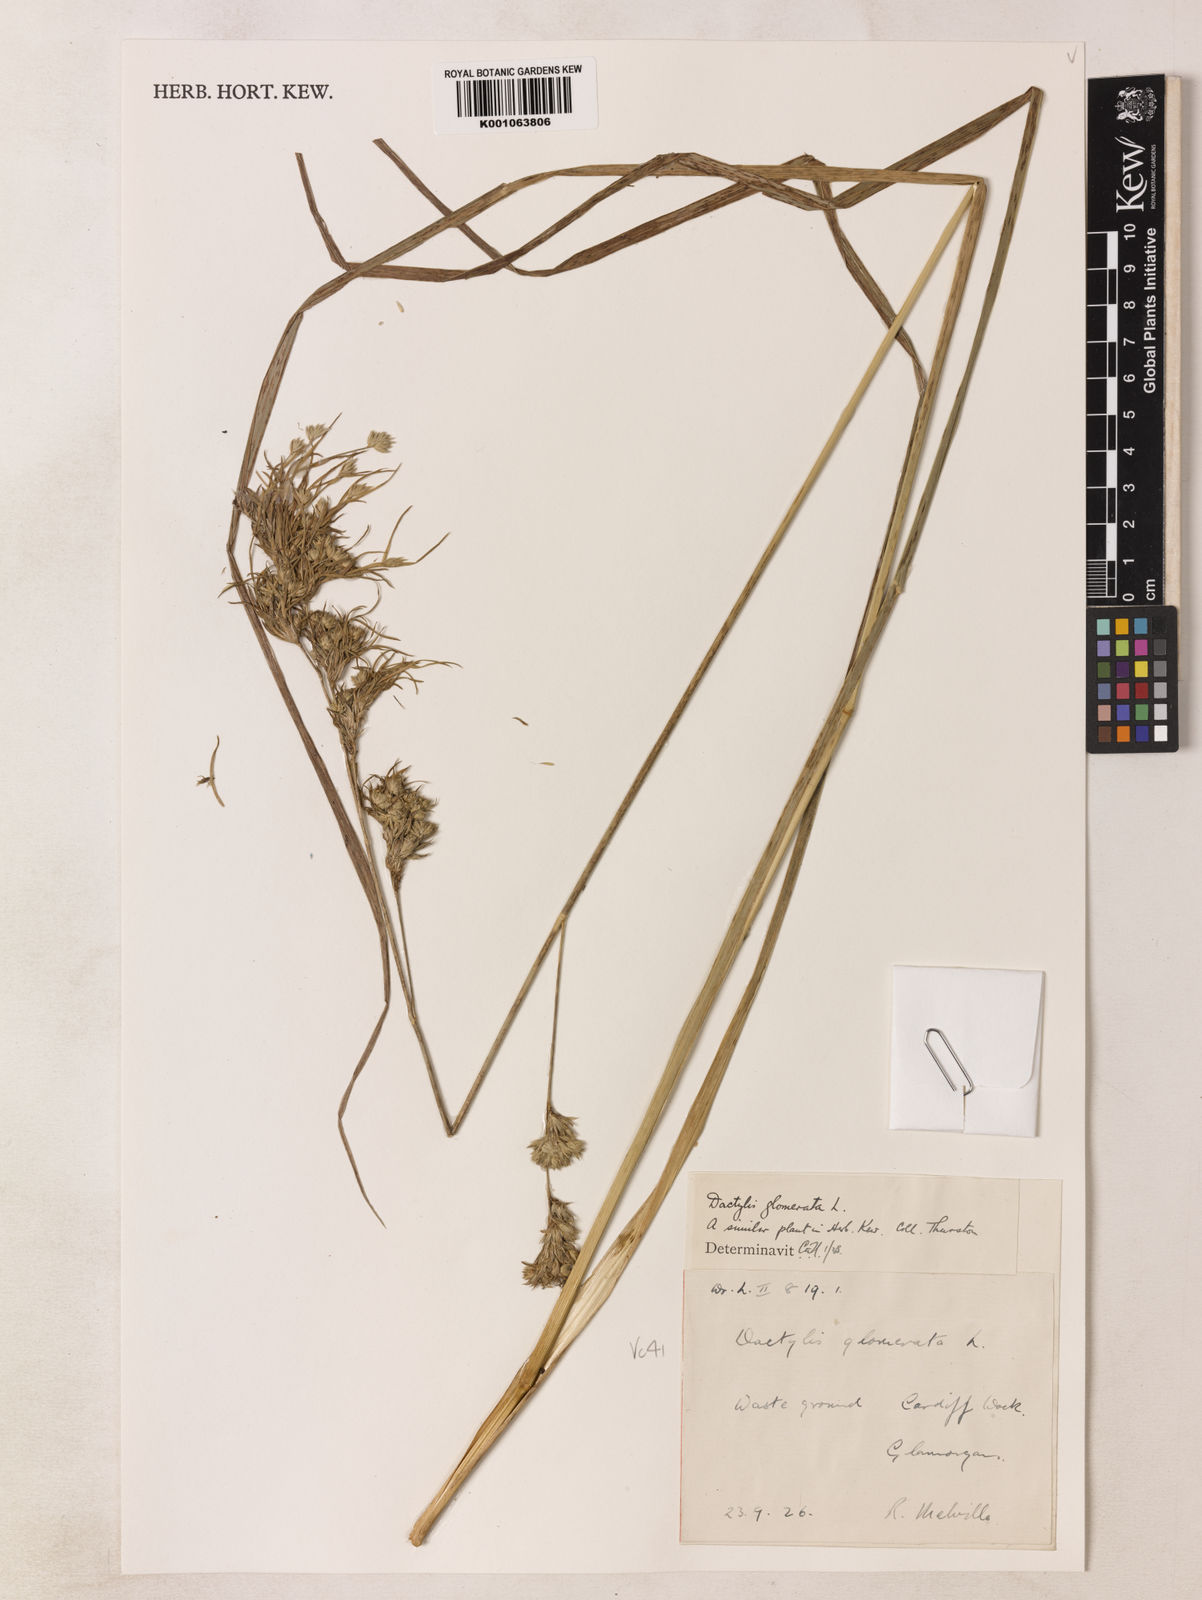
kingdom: Plantae
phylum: Tracheophyta
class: Liliopsida
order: Poales
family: Poaceae
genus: Dactylis
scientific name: Dactylis glomerata
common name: Orchardgrass
